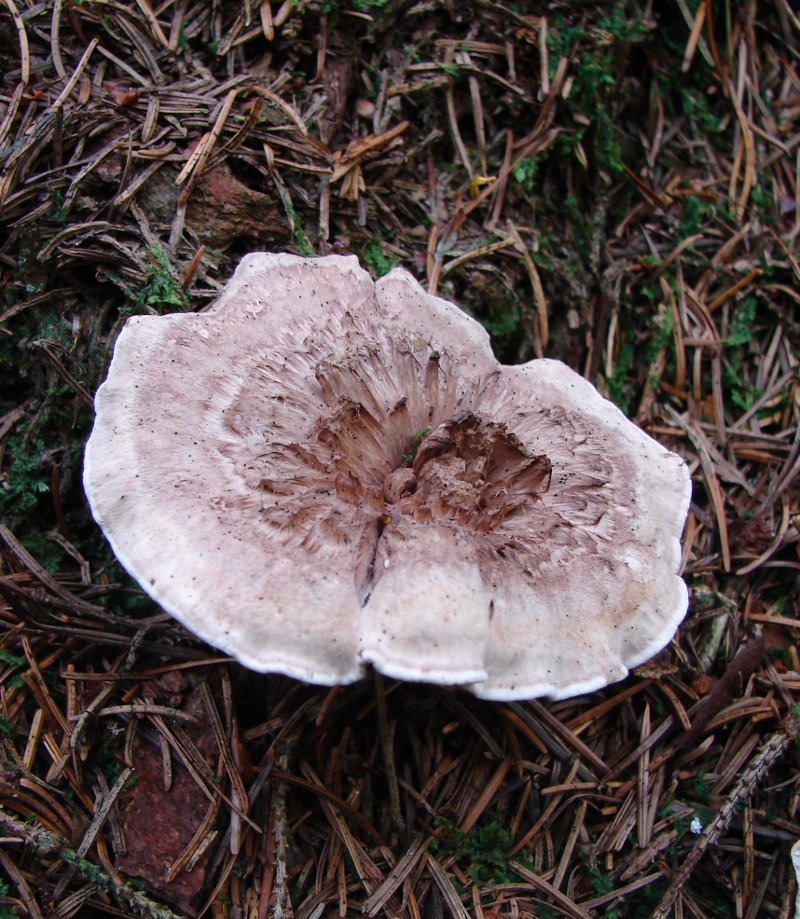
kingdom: Fungi
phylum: Basidiomycota
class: Agaricomycetes
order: Thelephorales
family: Thelephoraceae
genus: Phellodon
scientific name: Phellodon violascens
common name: violetbrun duftpigsvamp
